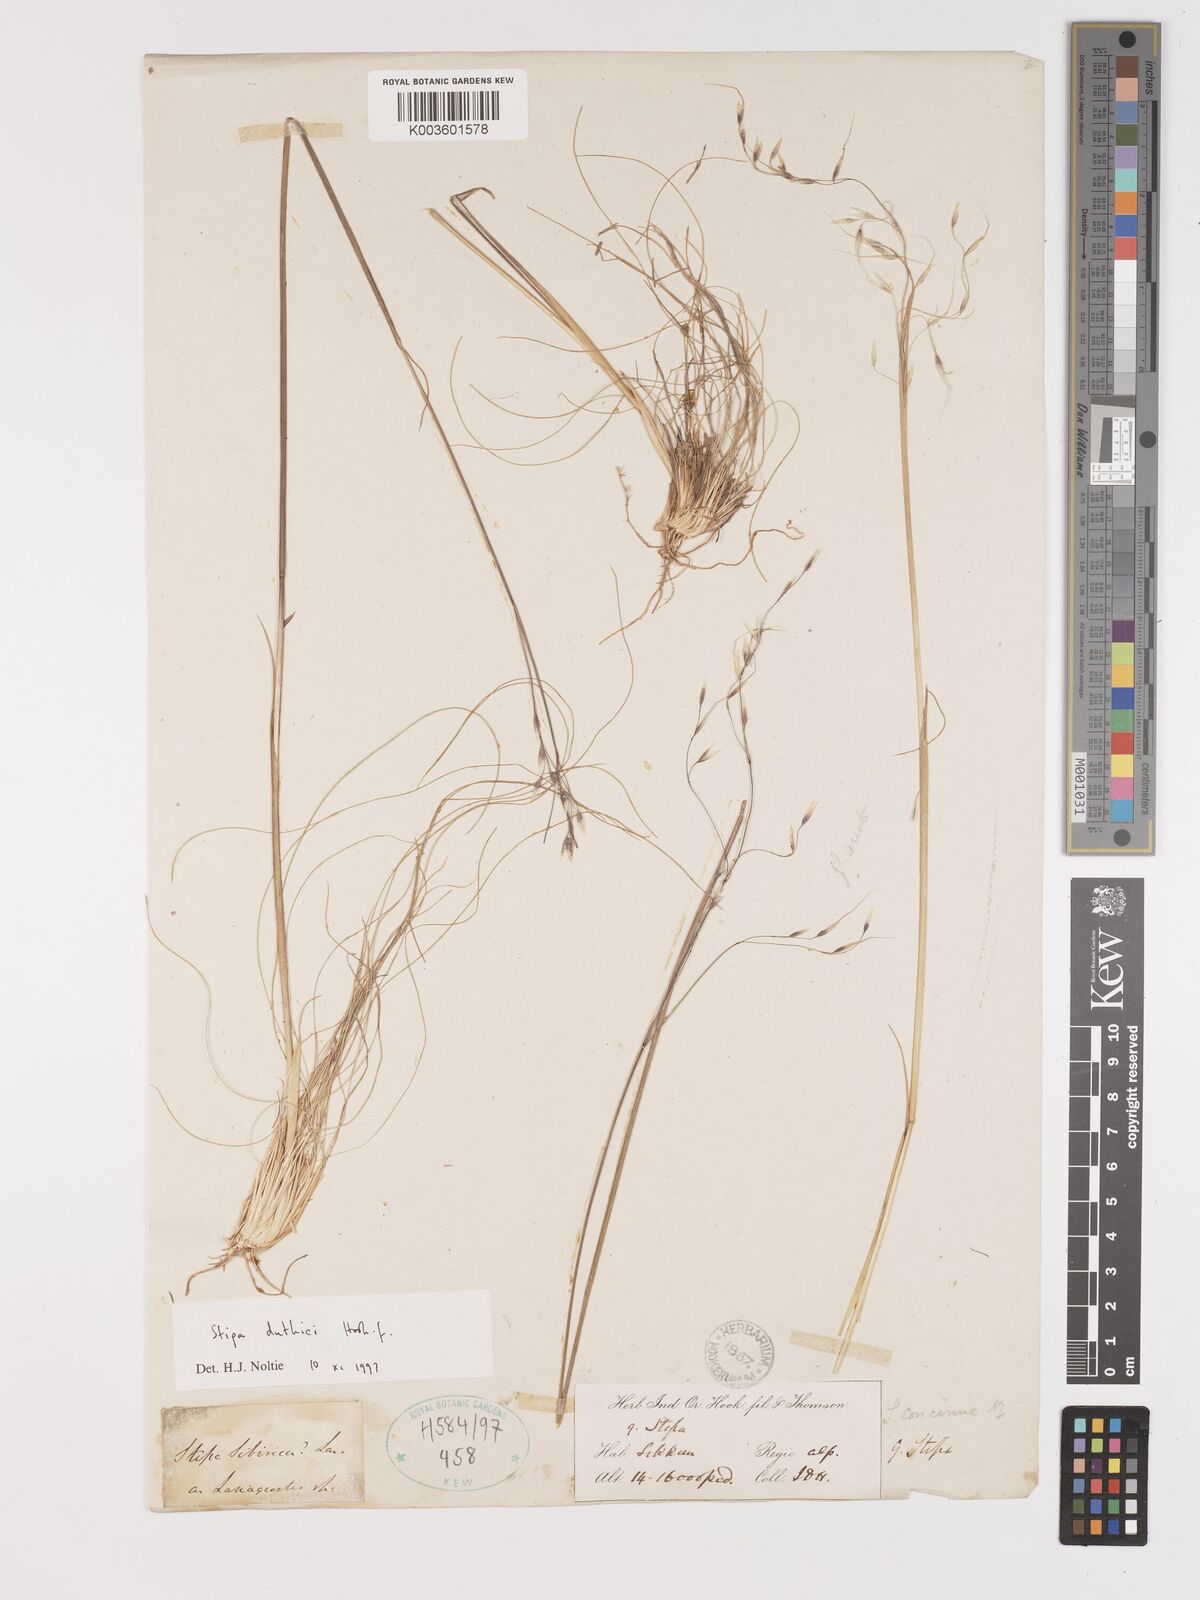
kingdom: Plantae
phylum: Tracheophyta
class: Liliopsida
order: Poales
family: Poaceae
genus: Ptilagrostis
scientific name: Ptilagrostis duthiei
